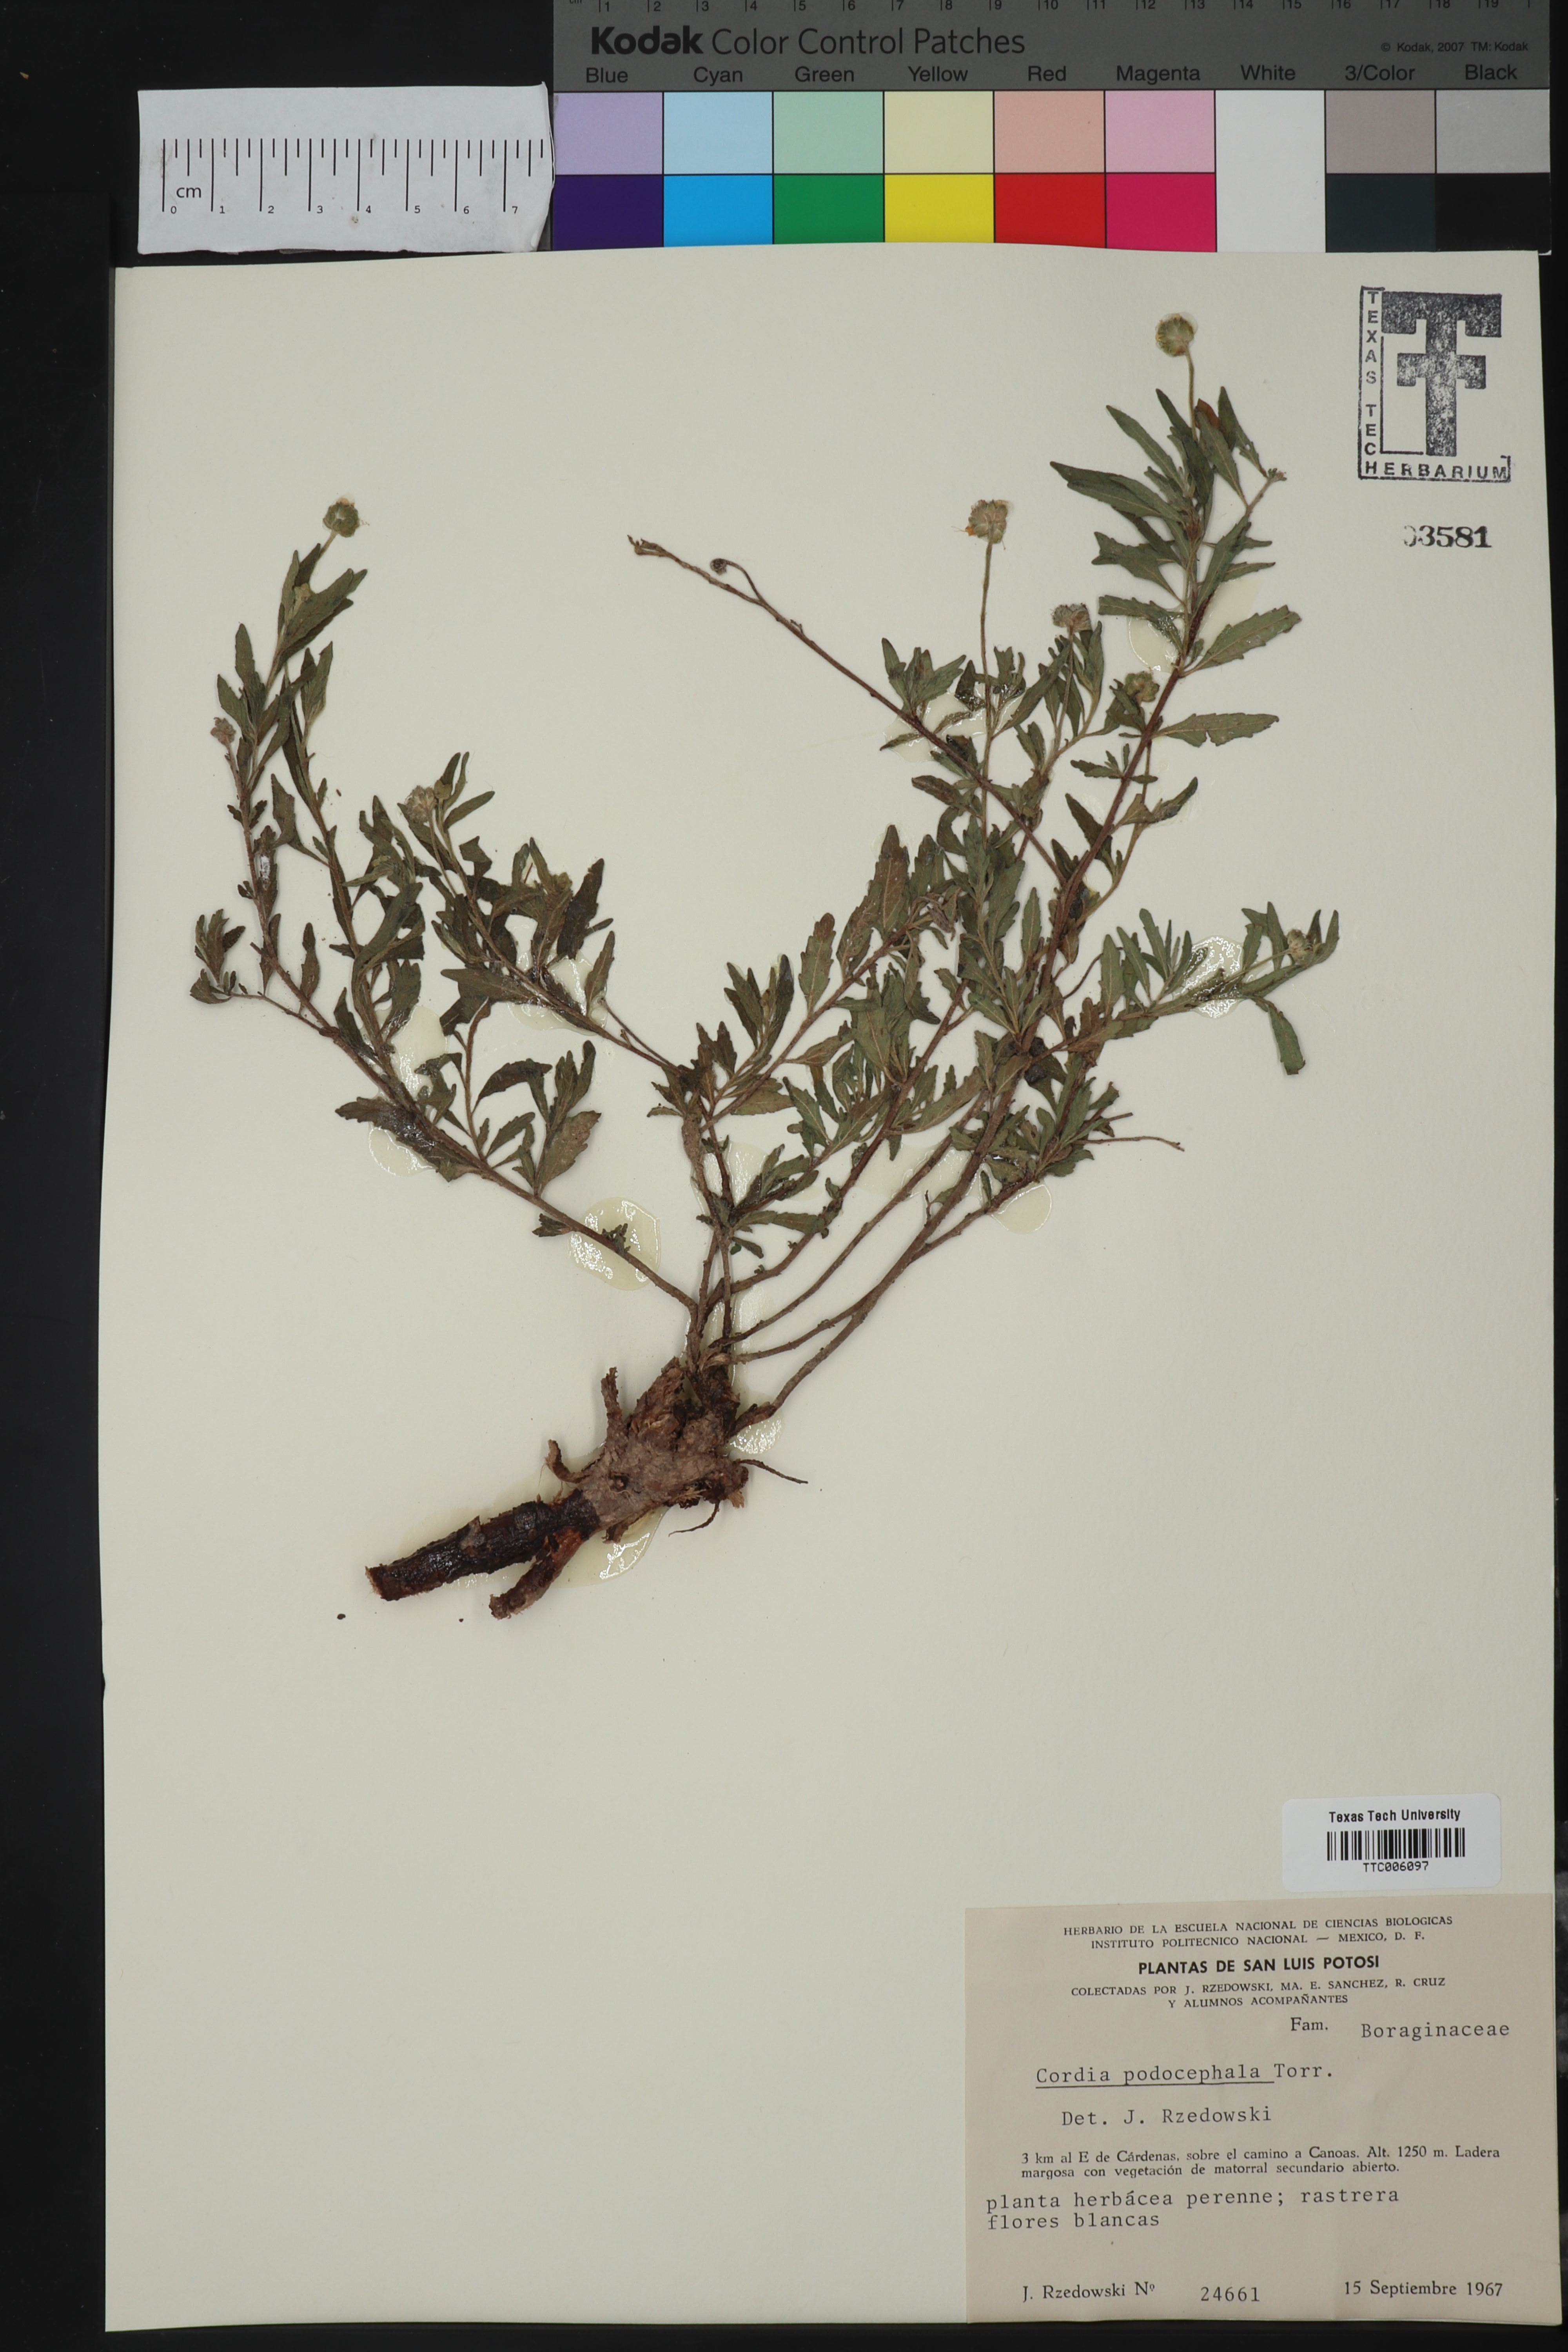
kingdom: Plantae
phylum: Tracheophyta
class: Magnoliopsida
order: Boraginales
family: Cordiaceae
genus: Varronia
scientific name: Varronia podocephala
